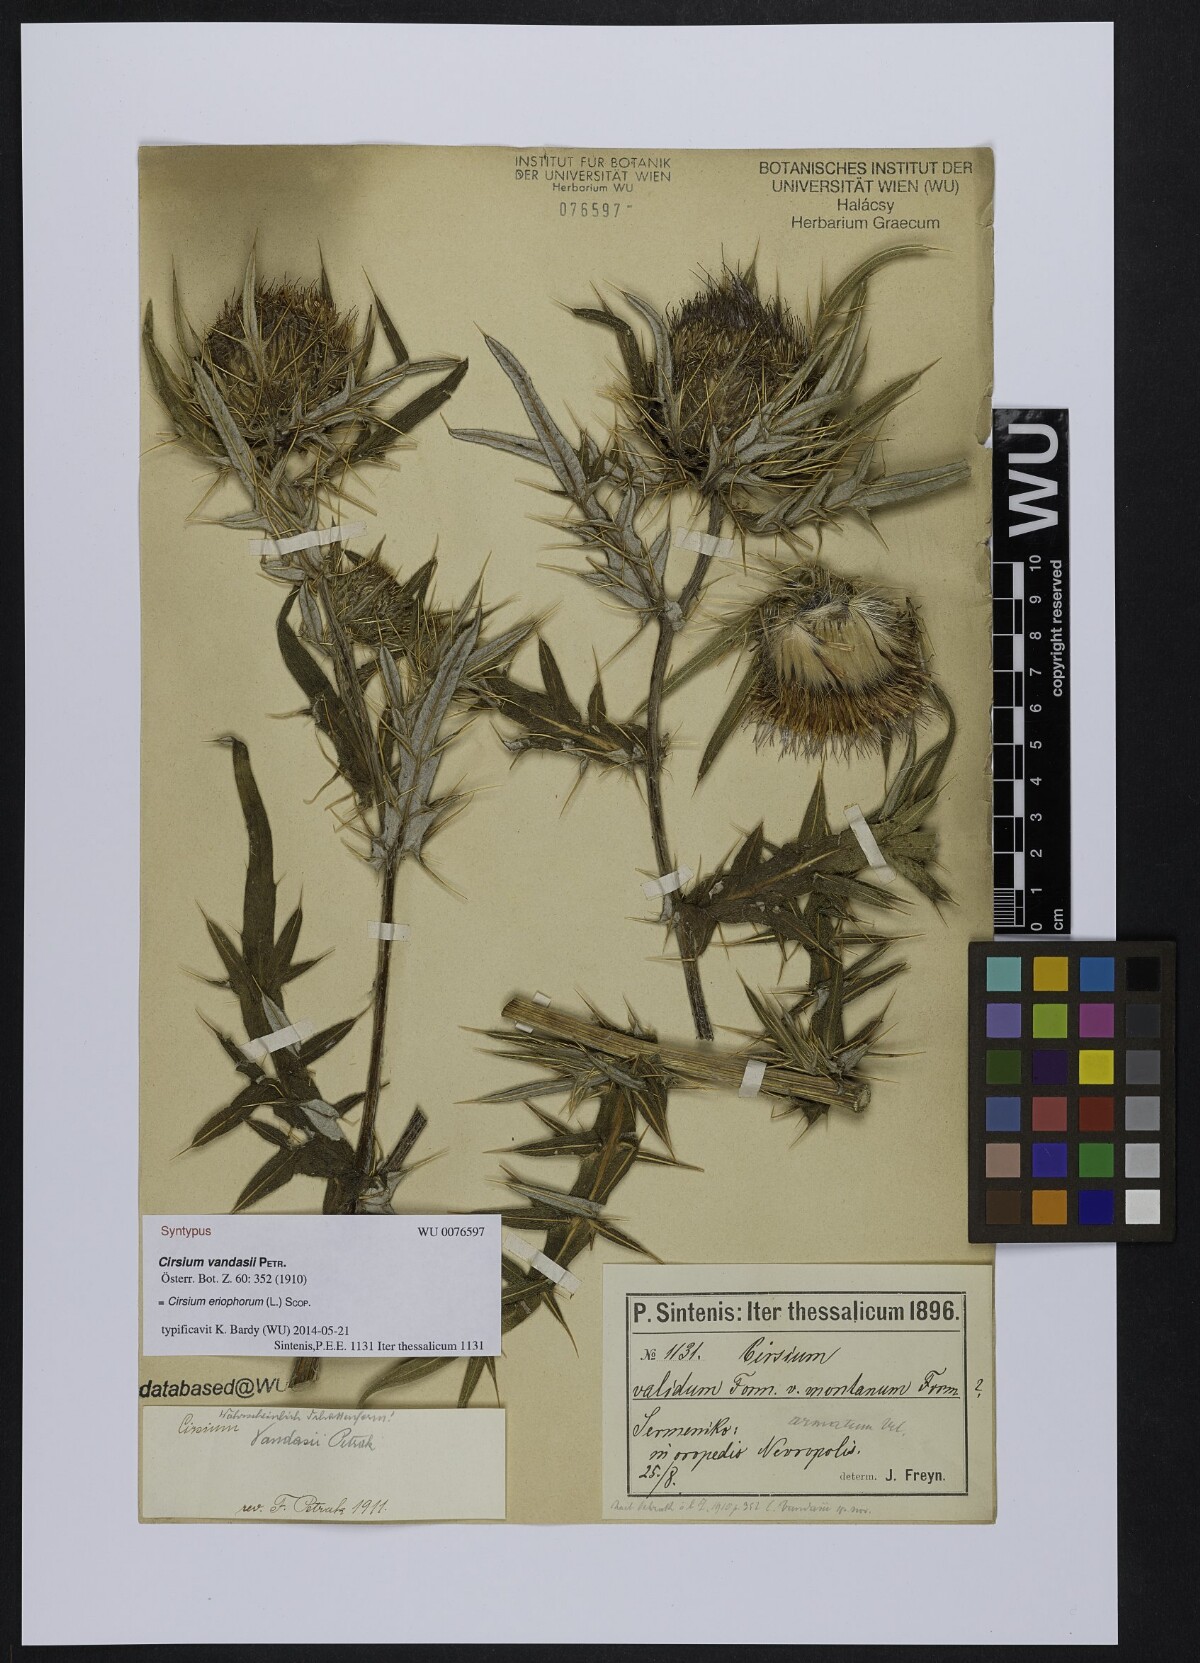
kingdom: Plantae
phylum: Tracheophyta
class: Magnoliopsida
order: Asterales
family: Asteraceae
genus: Lophiolepis
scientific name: Lophiolepis eriophora
